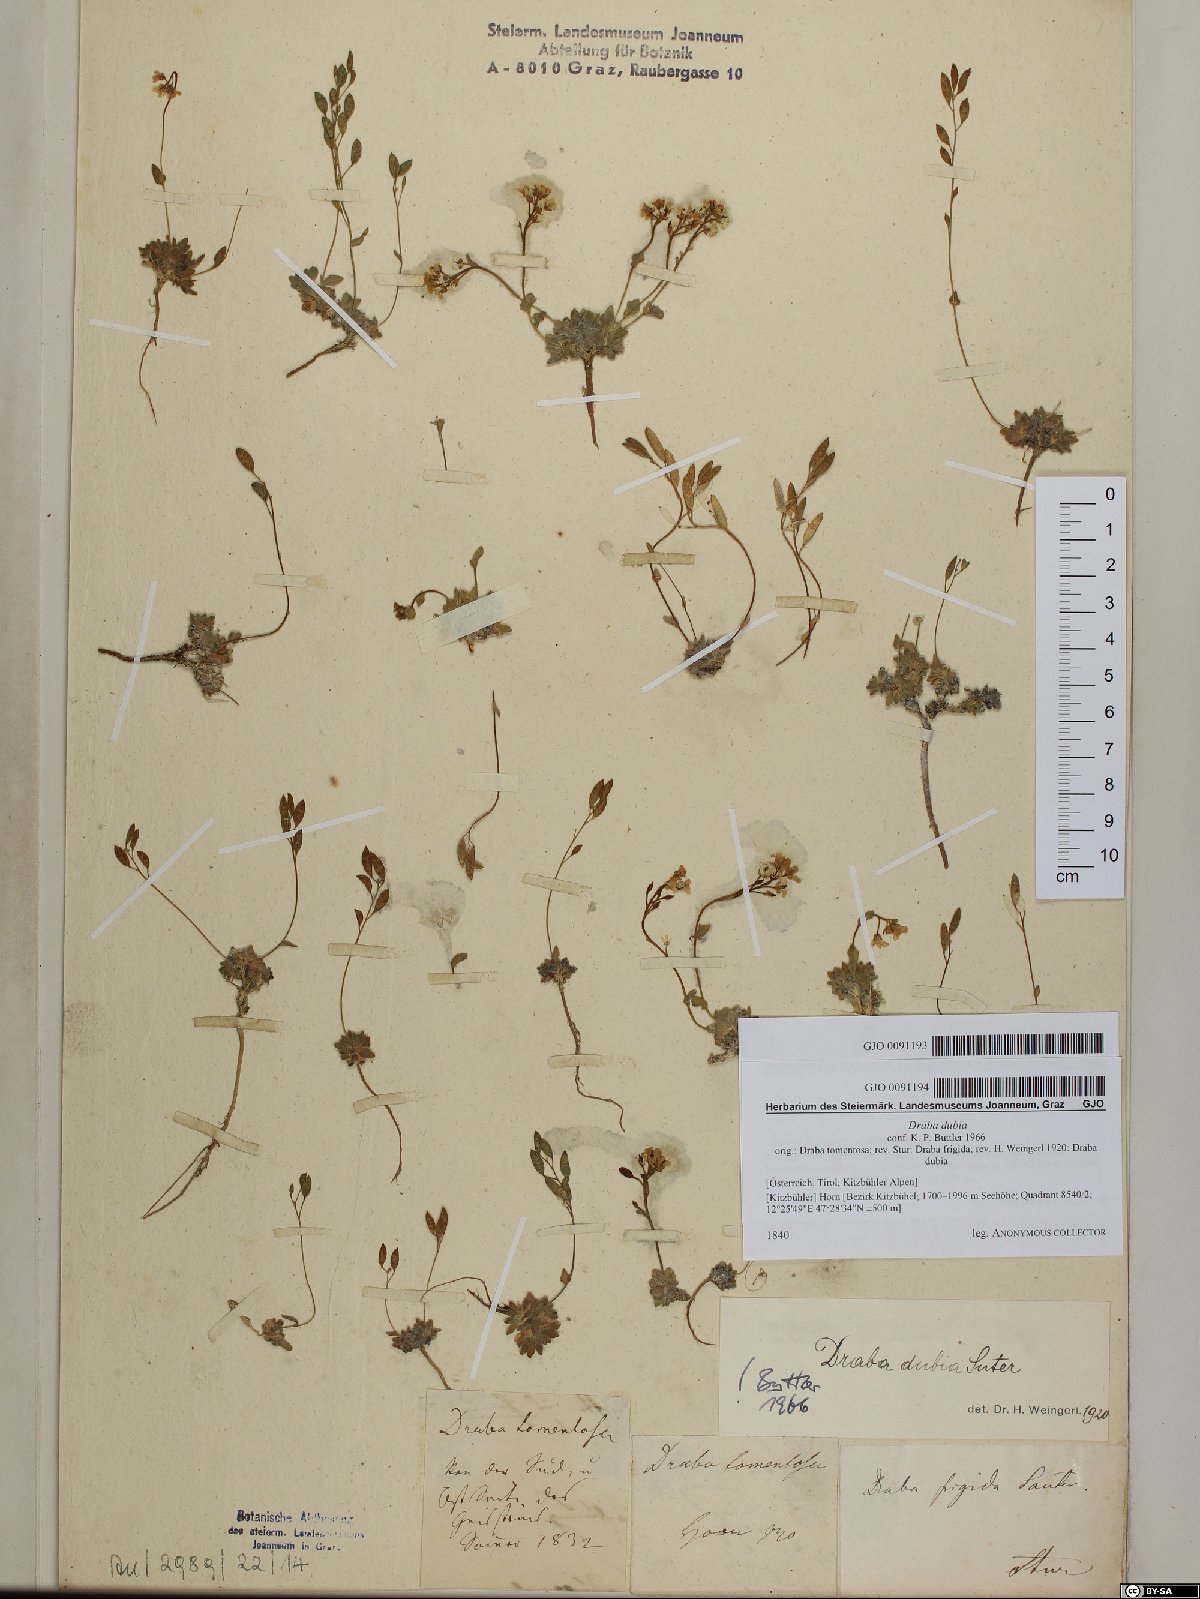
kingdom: Plantae
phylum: Tracheophyta
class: Magnoliopsida
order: Brassicales
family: Brassicaceae
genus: Draba
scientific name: Draba dubia
